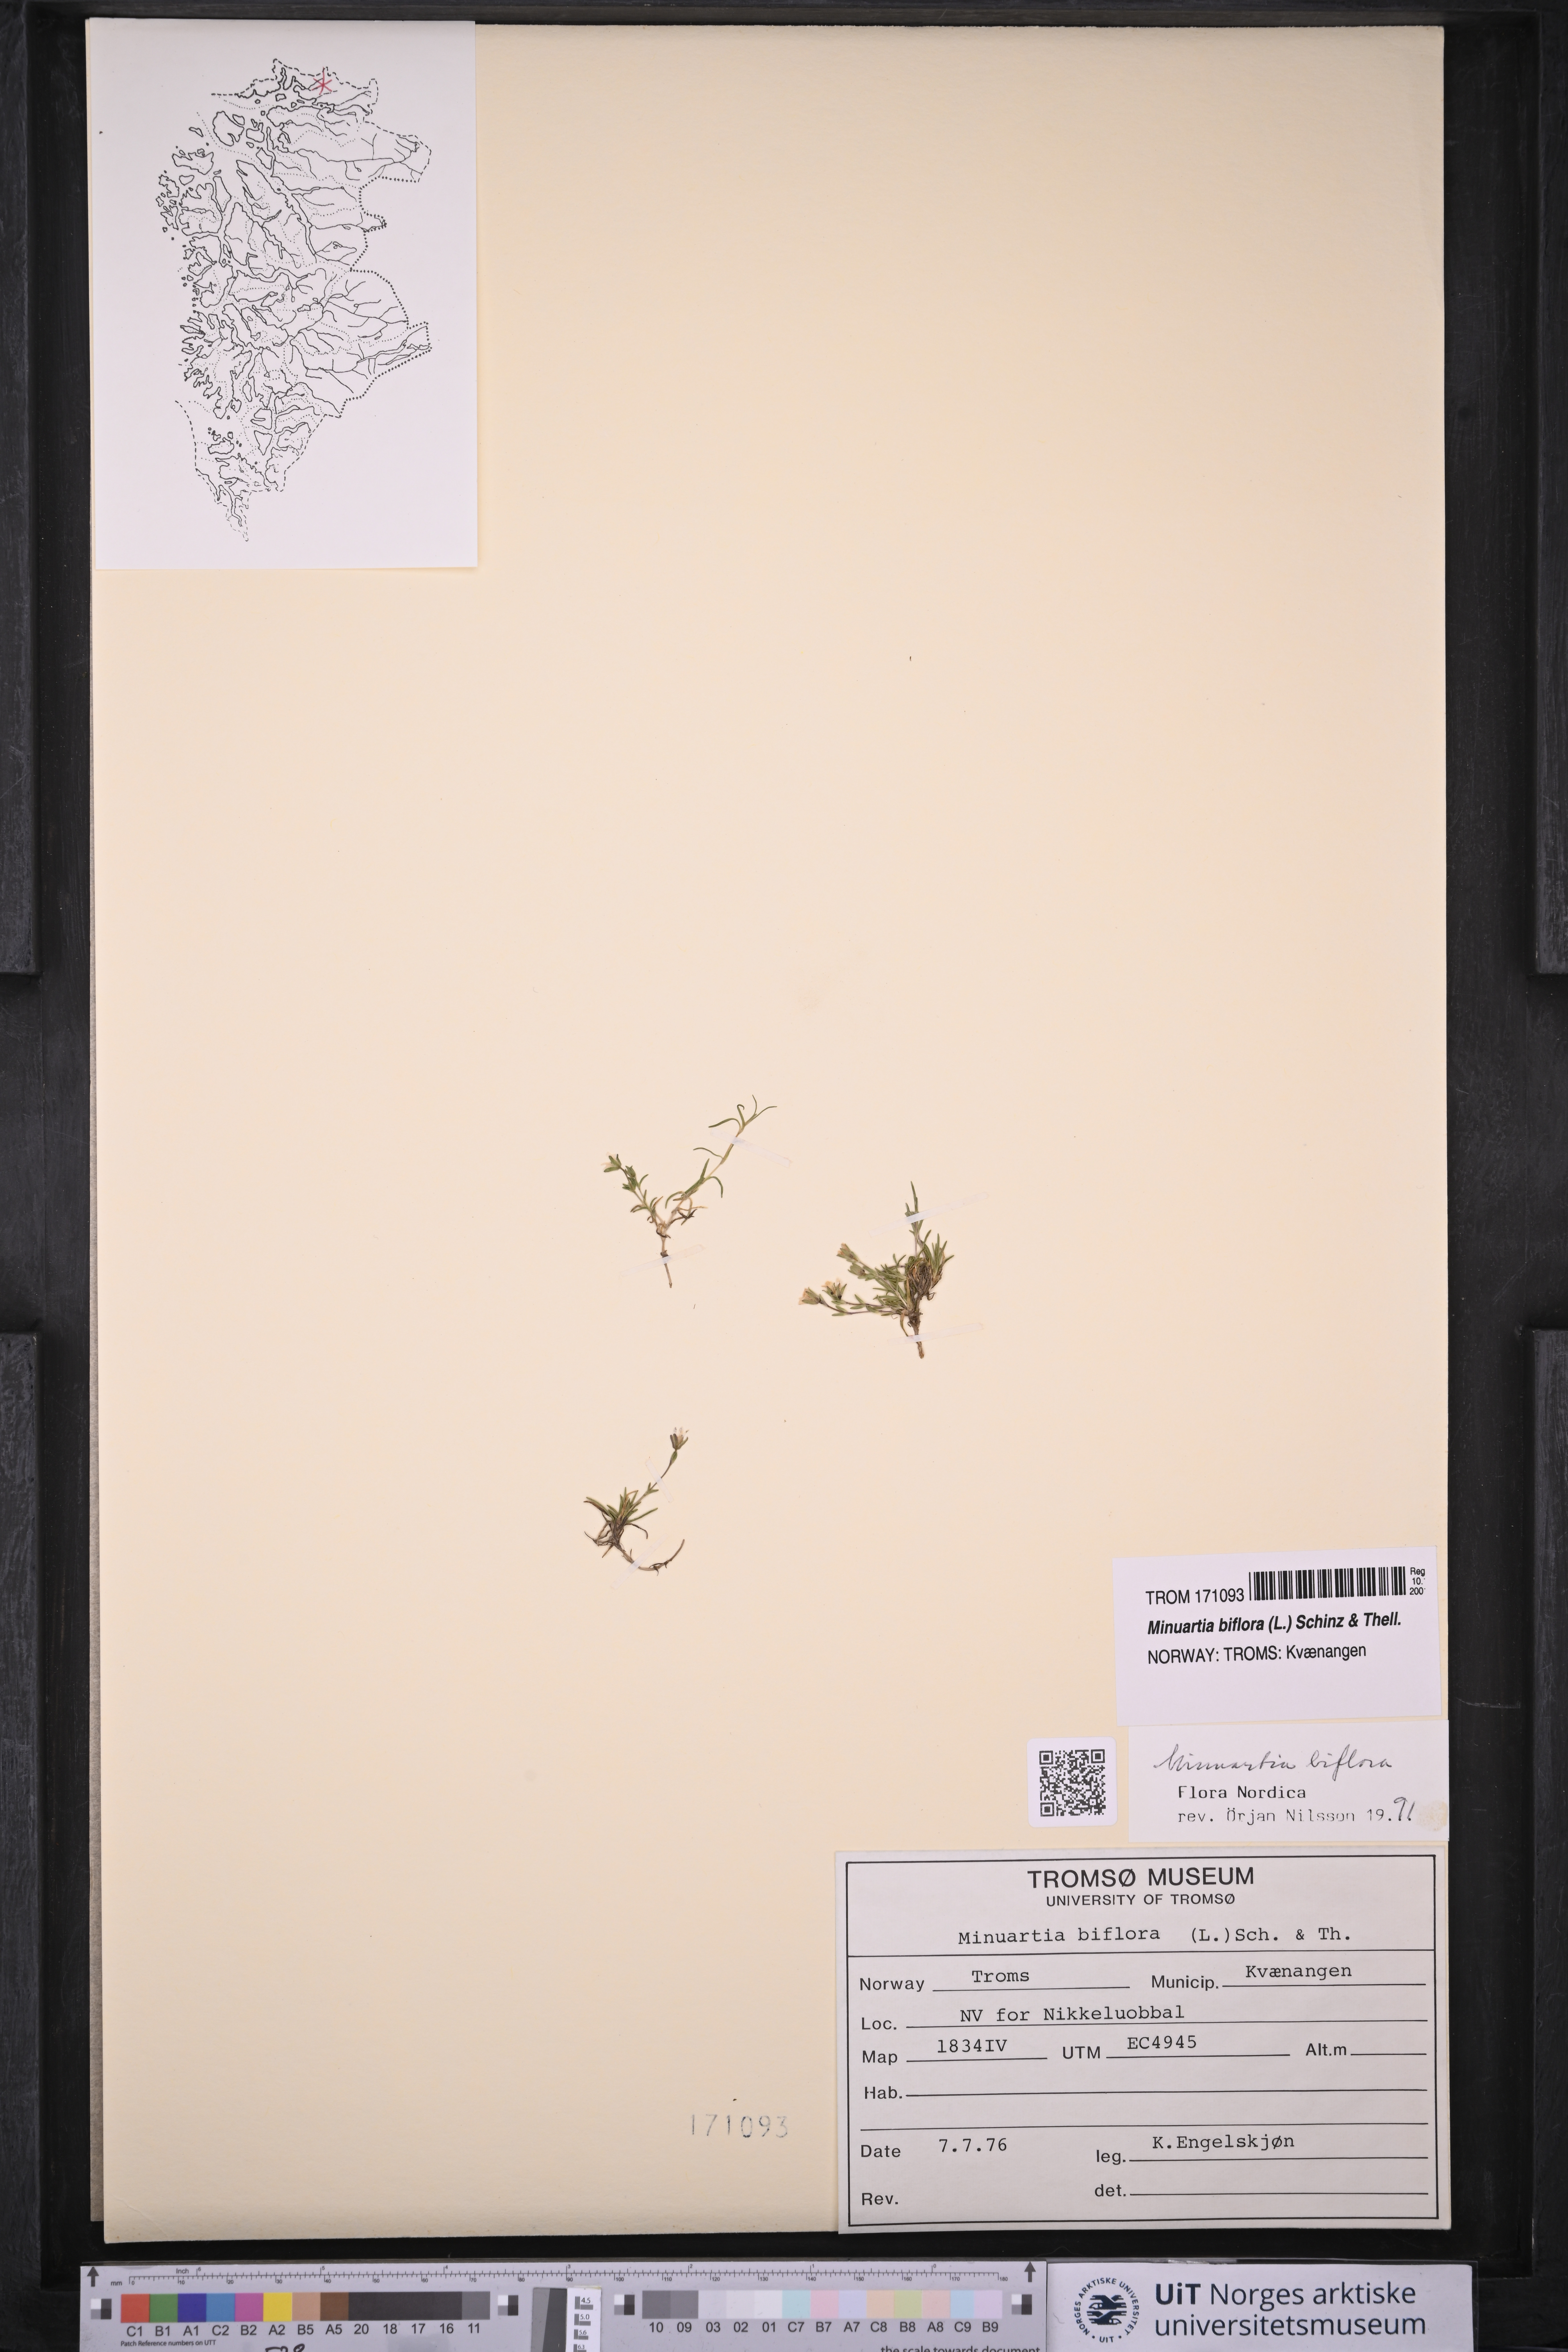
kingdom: Plantae
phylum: Tracheophyta
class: Magnoliopsida
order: Caryophyllales
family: Caryophyllaceae
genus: Cherleria
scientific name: Cherleria biflora
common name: Mountain sandwort
